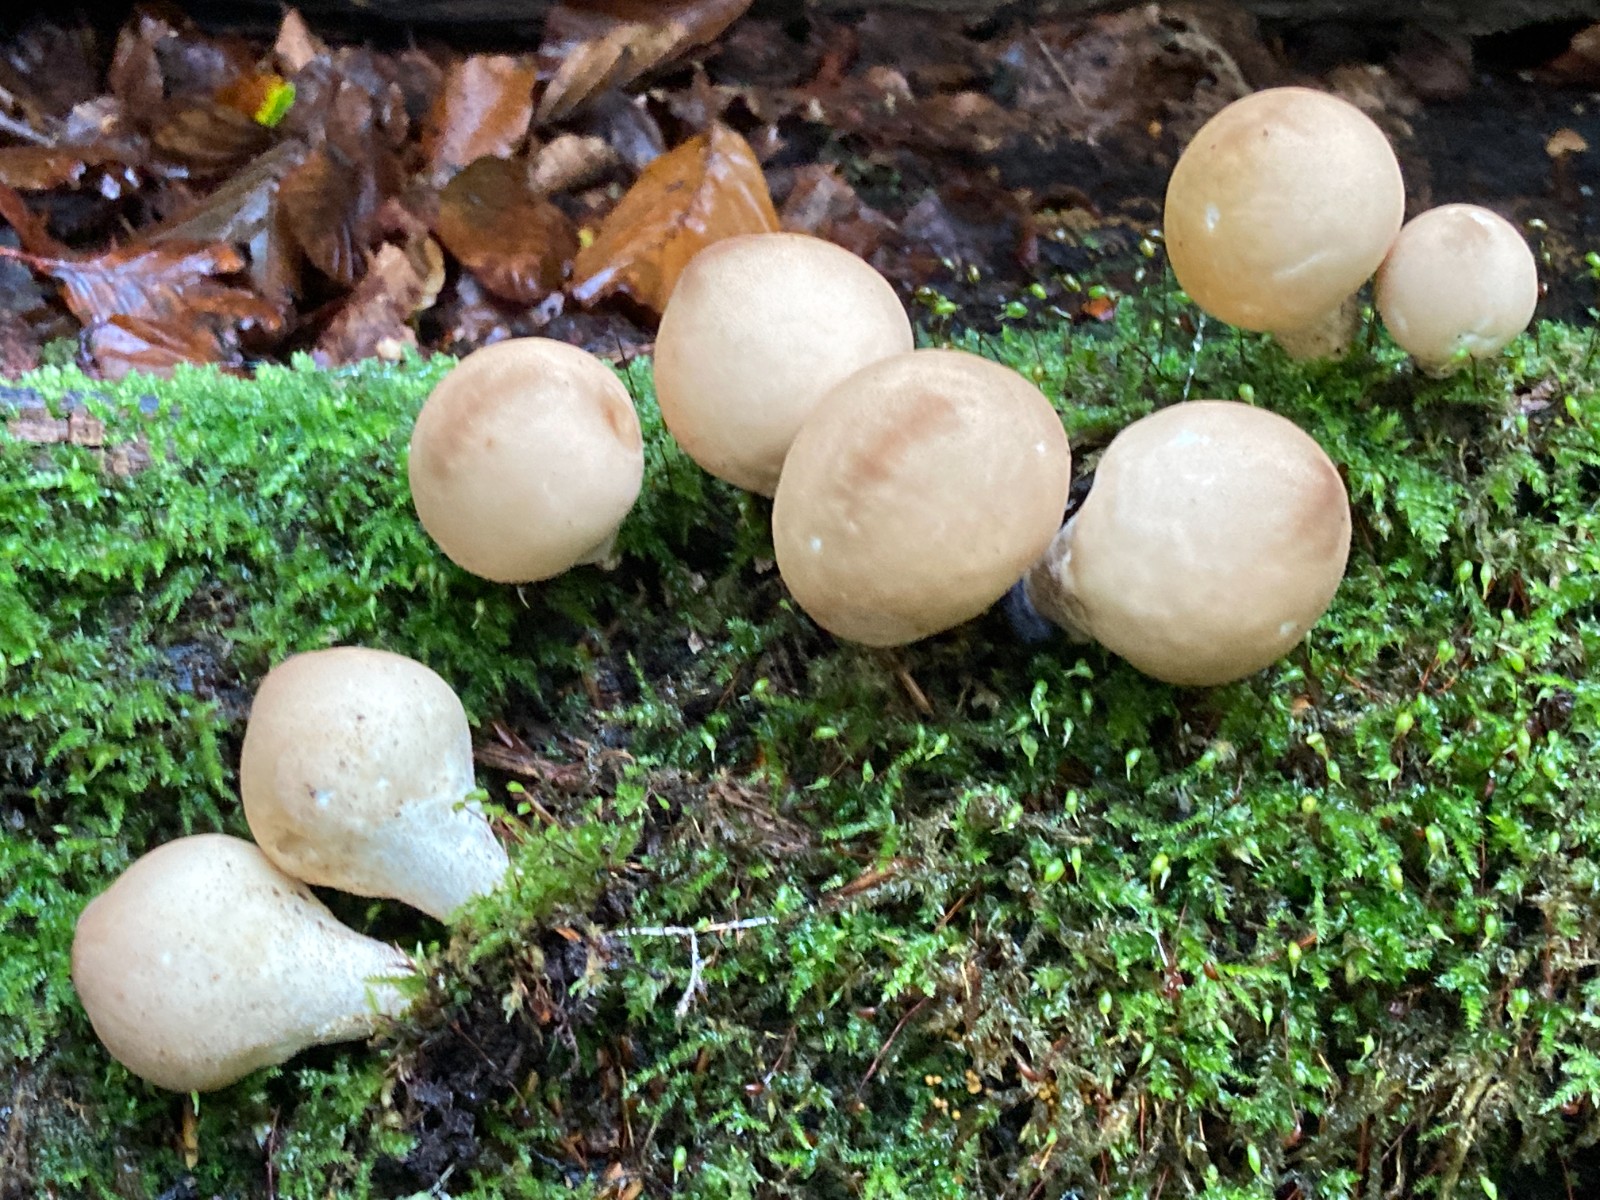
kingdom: Fungi
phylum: Basidiomycota
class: Agaricomycetes
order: Agaricales
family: Lycoperdaceae
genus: Apioperdon
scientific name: Apioperdon pyriforme
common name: pære-støvbold
